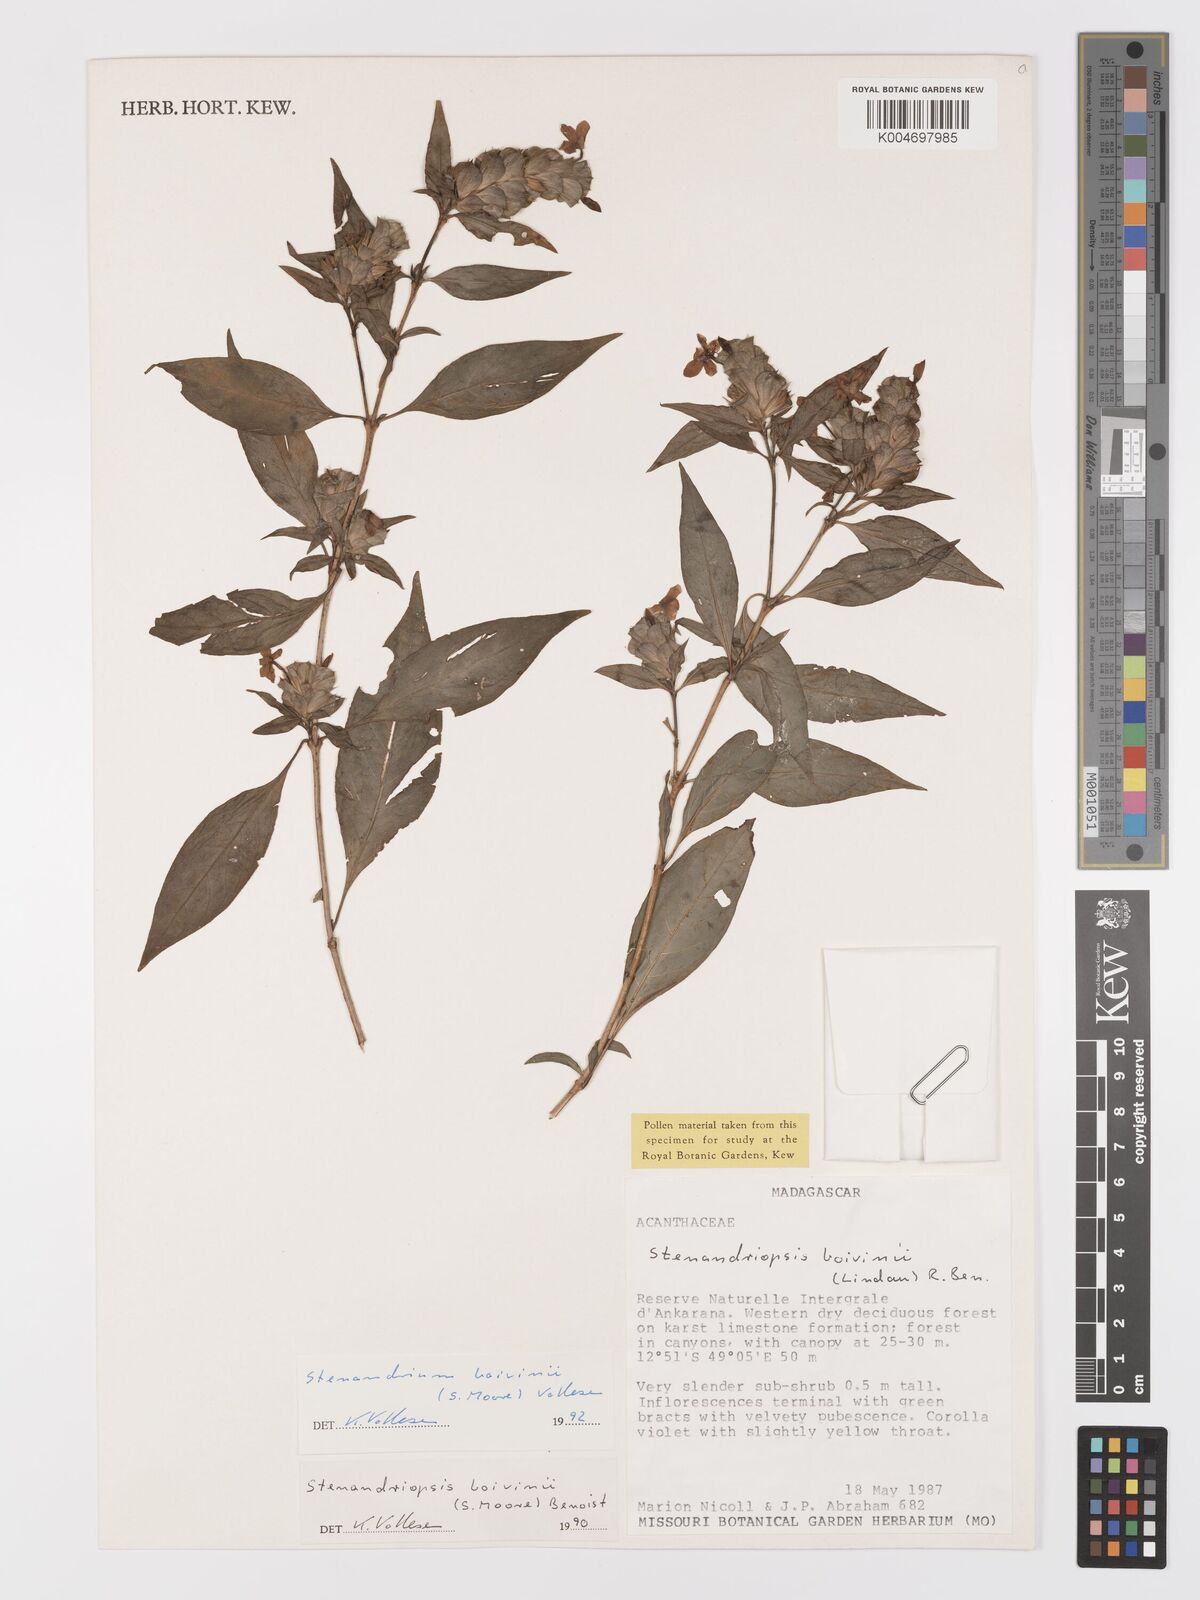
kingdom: Plantae
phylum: Tracheophyta
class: Magnoliopsida
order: Lamiales
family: Acanthaceae
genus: Stenandriopsis
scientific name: Stenandriopsis boivinii
